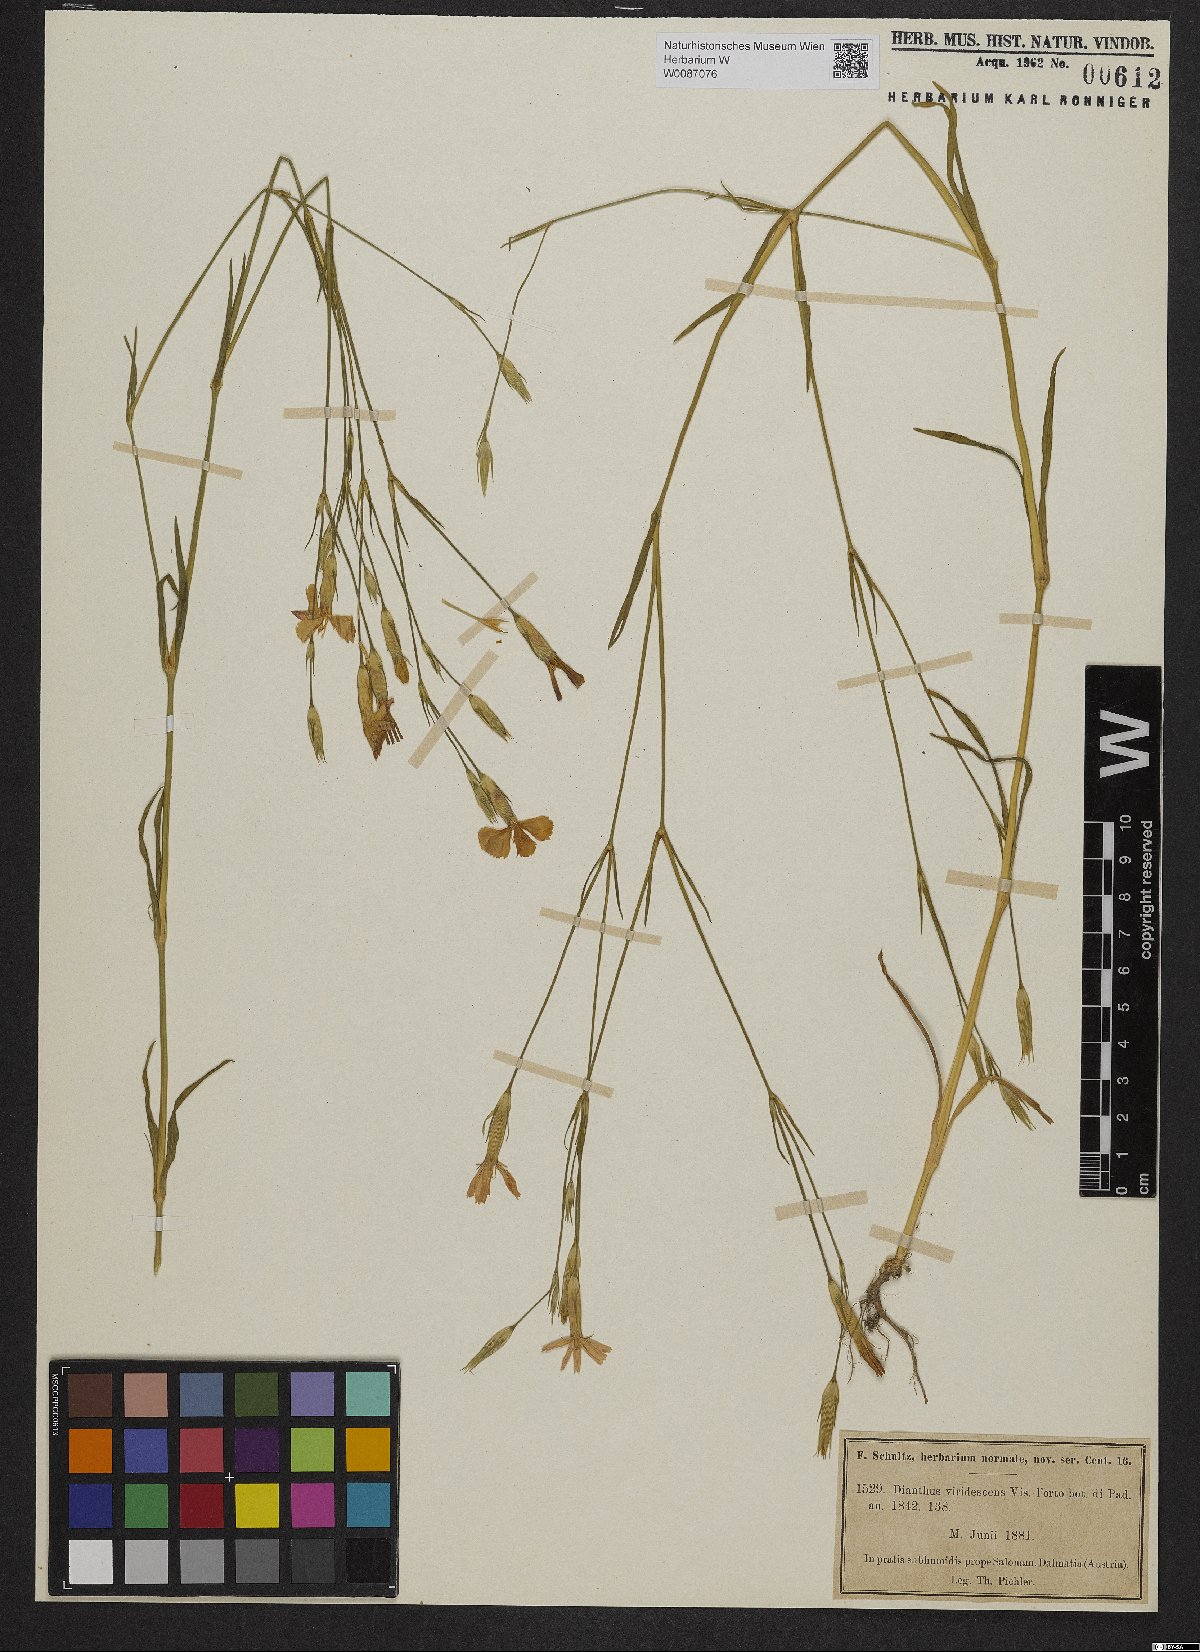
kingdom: Plantae
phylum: Tracheophyta
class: Magnoliopsida
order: Caryophyllales
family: Caryophyllaceae
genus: Dianthus
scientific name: Dianthus viridescens
